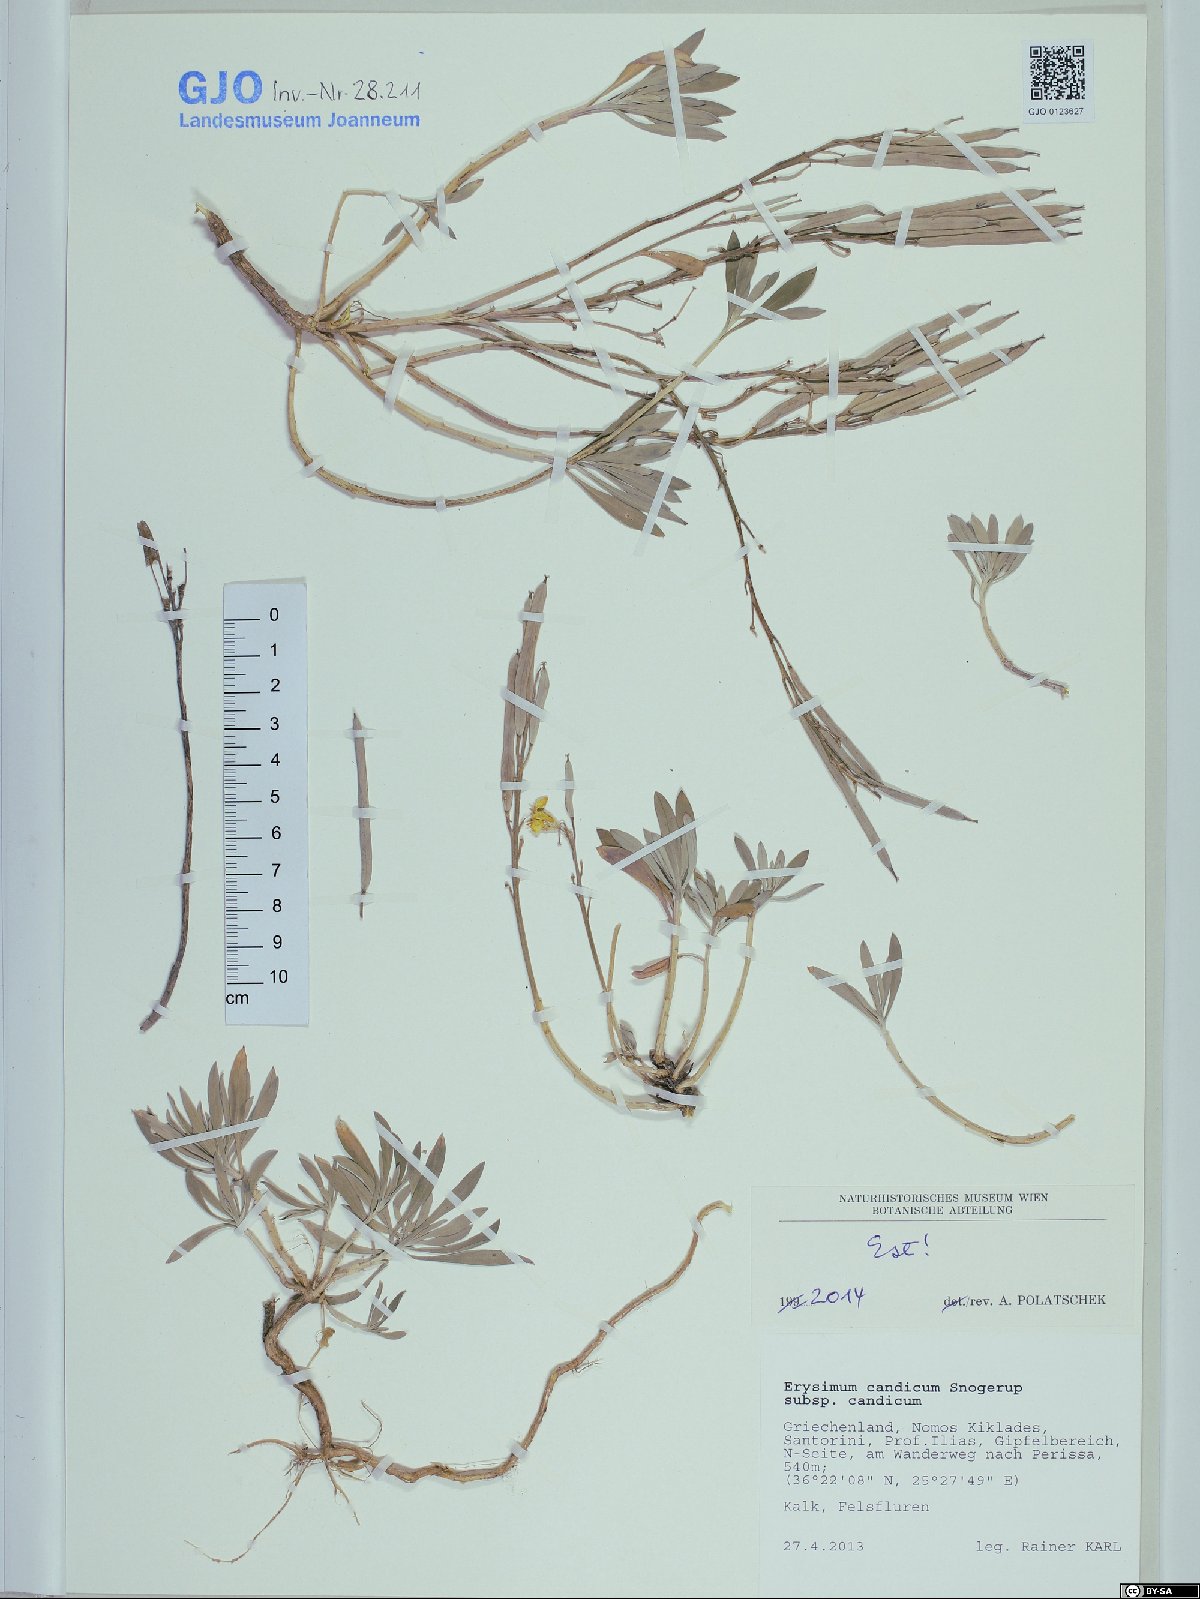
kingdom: Plantae
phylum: Tracheophyta
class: Magnoliopsida
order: Brassicales
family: Brassicaceae
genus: Erysimum
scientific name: Erysimum candicum
